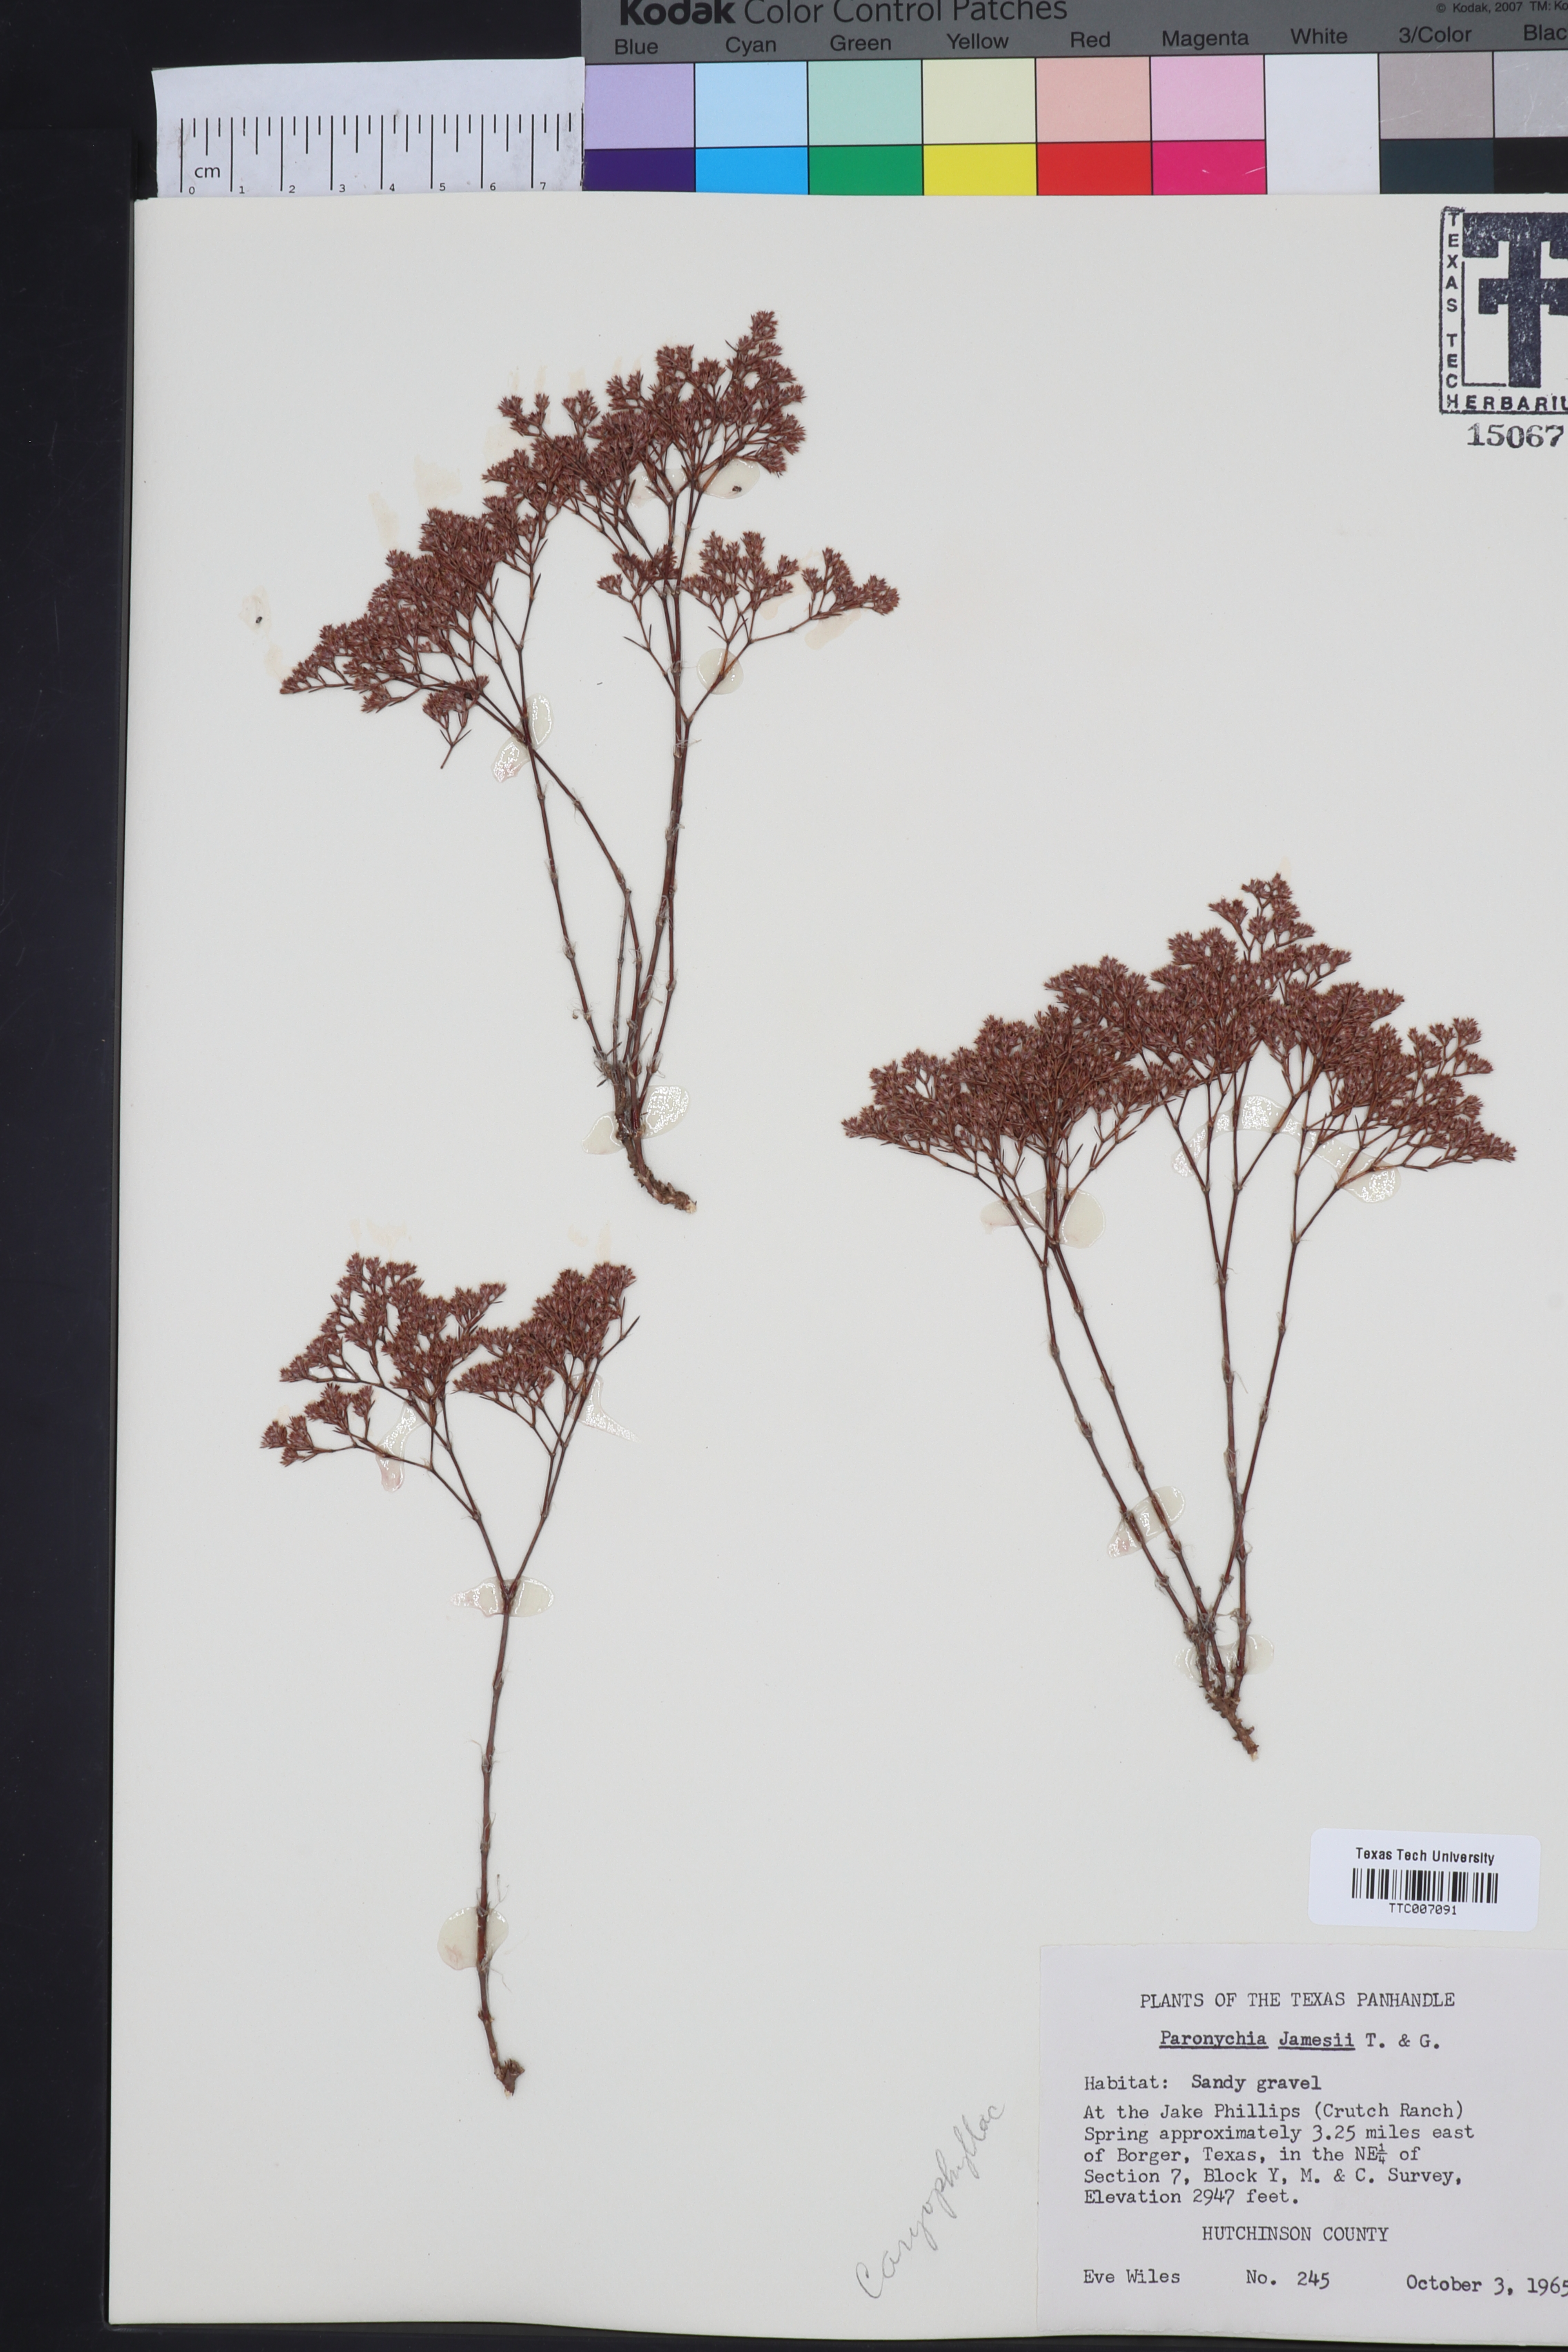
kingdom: Plantae
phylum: Tracheophyta
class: Magnoliopsida
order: Caryophyllales
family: Caryophyllaceae
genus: Paronychia
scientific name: Paronychia jamesii
